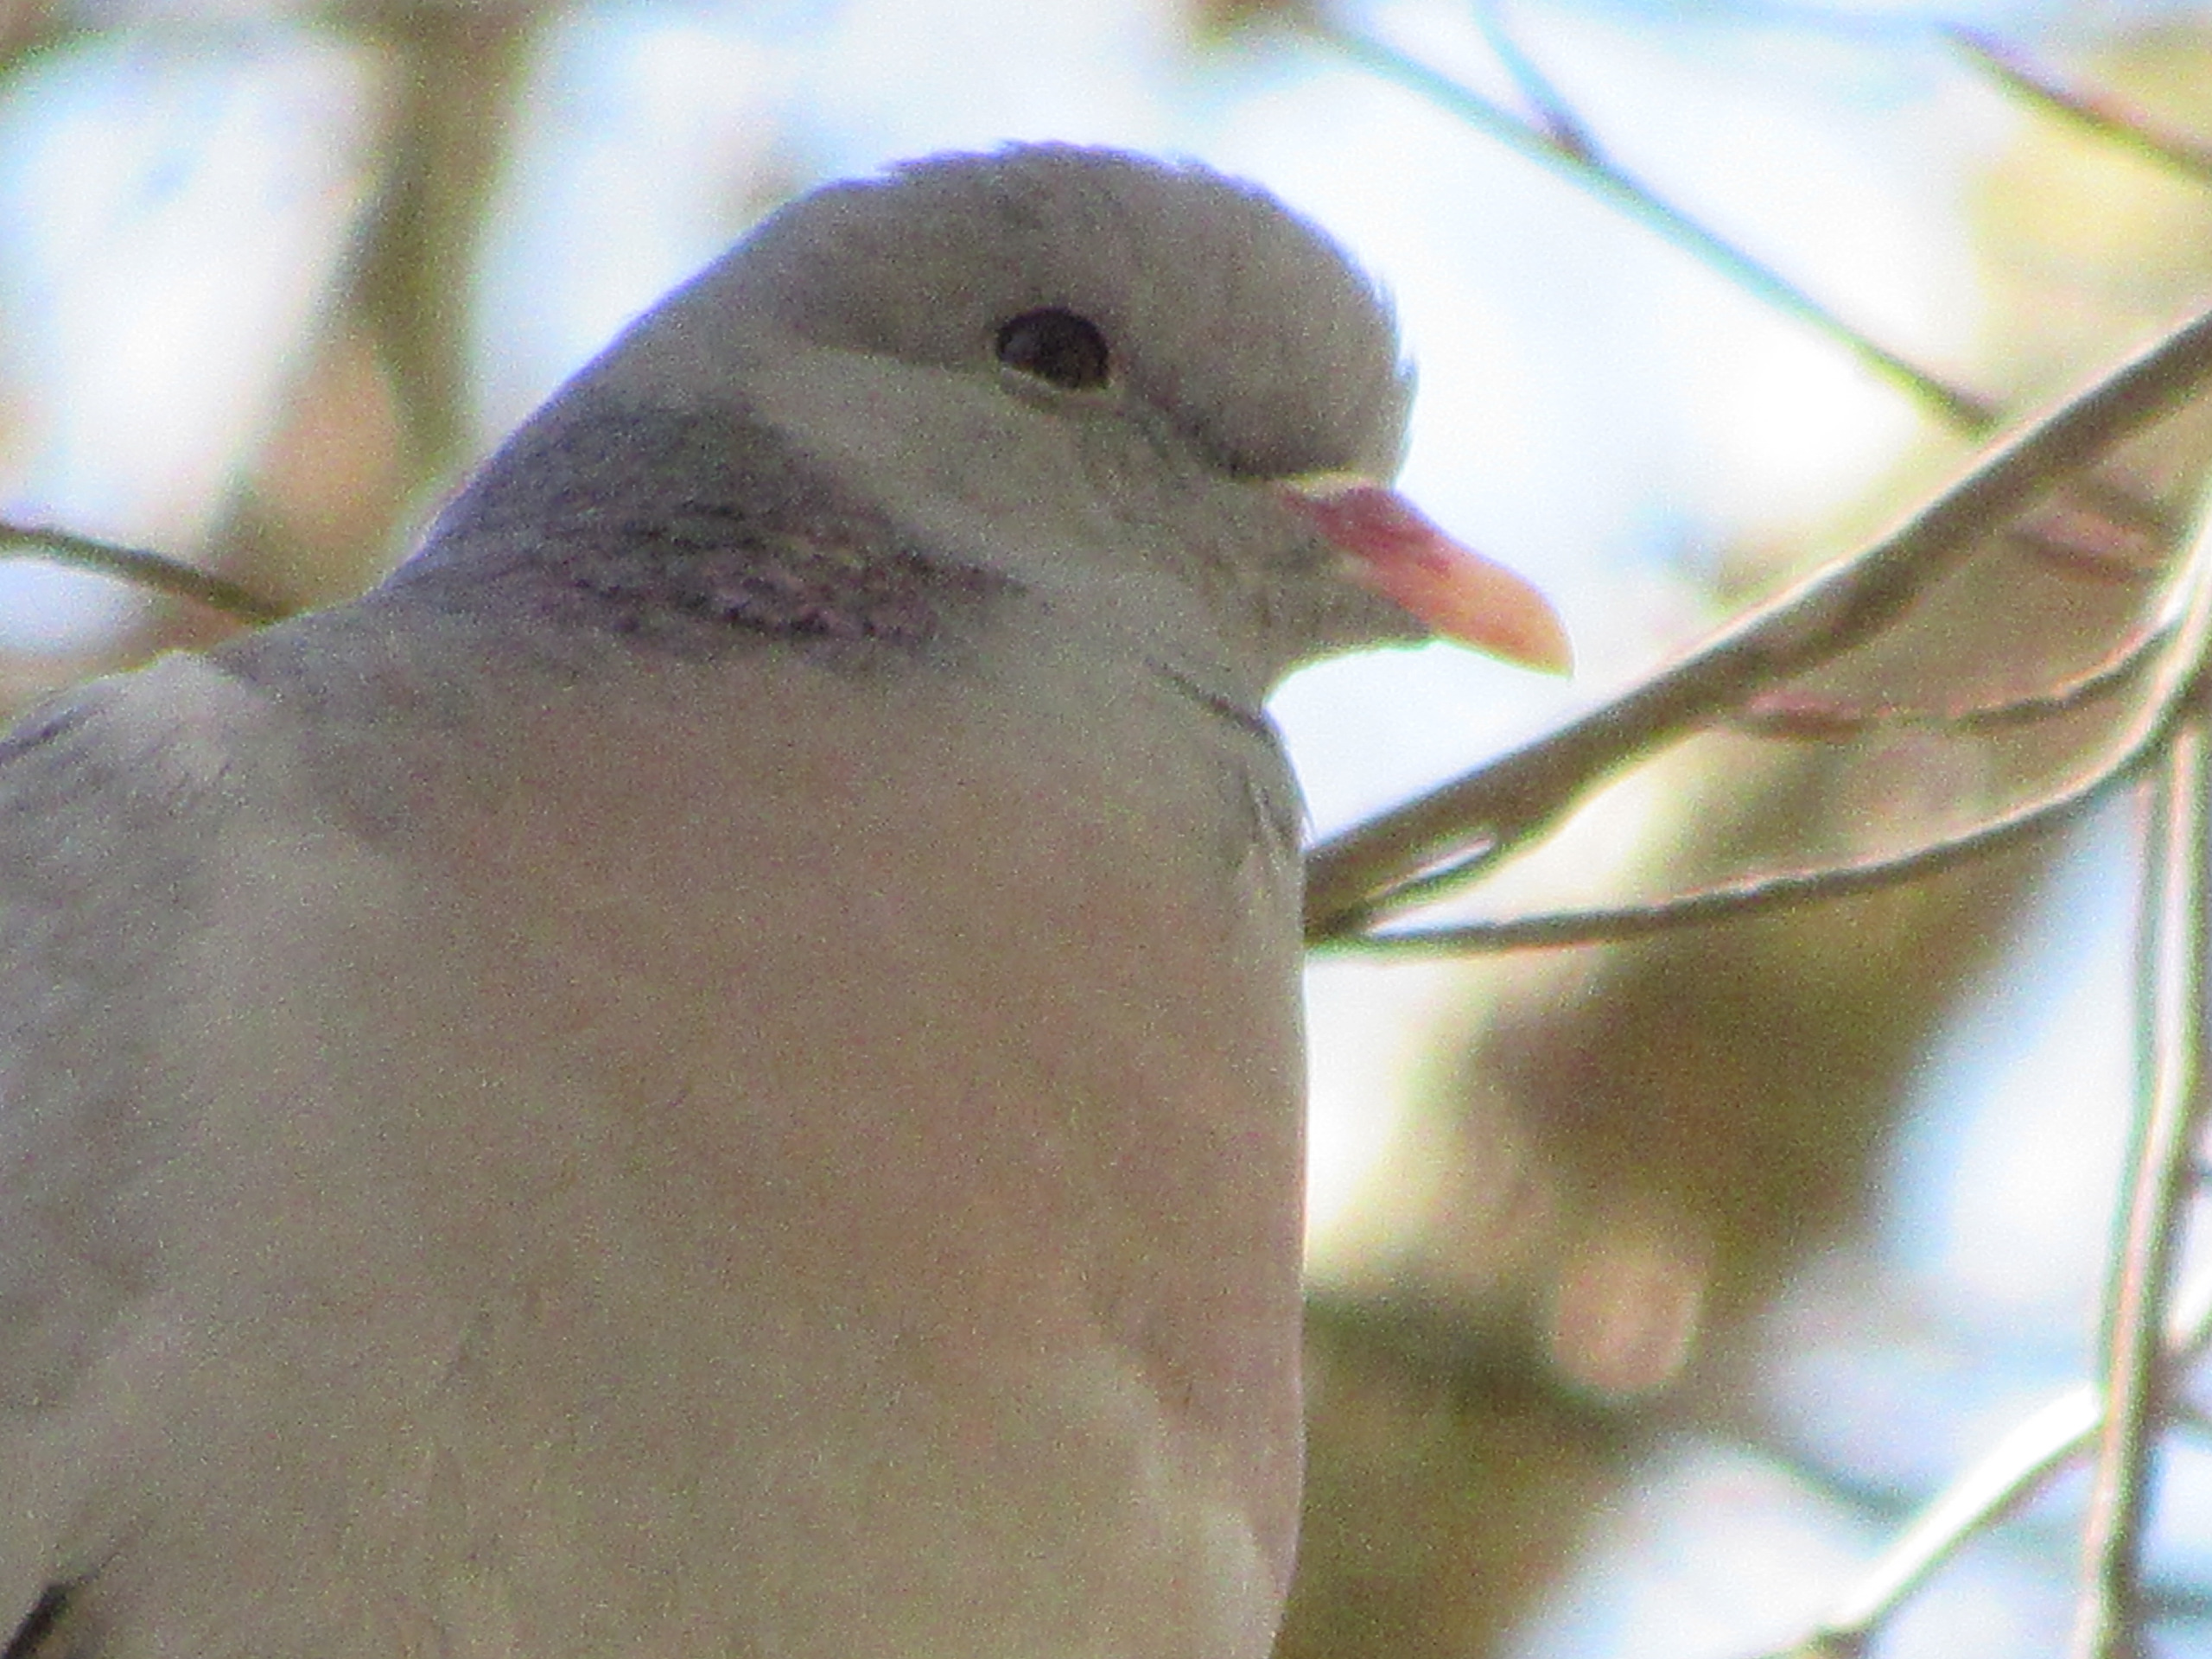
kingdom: Animalia
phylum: Chordata
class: Aves
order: Columbiformes
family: Columbidae
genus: Columba
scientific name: Columba oenas
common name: Huldue
